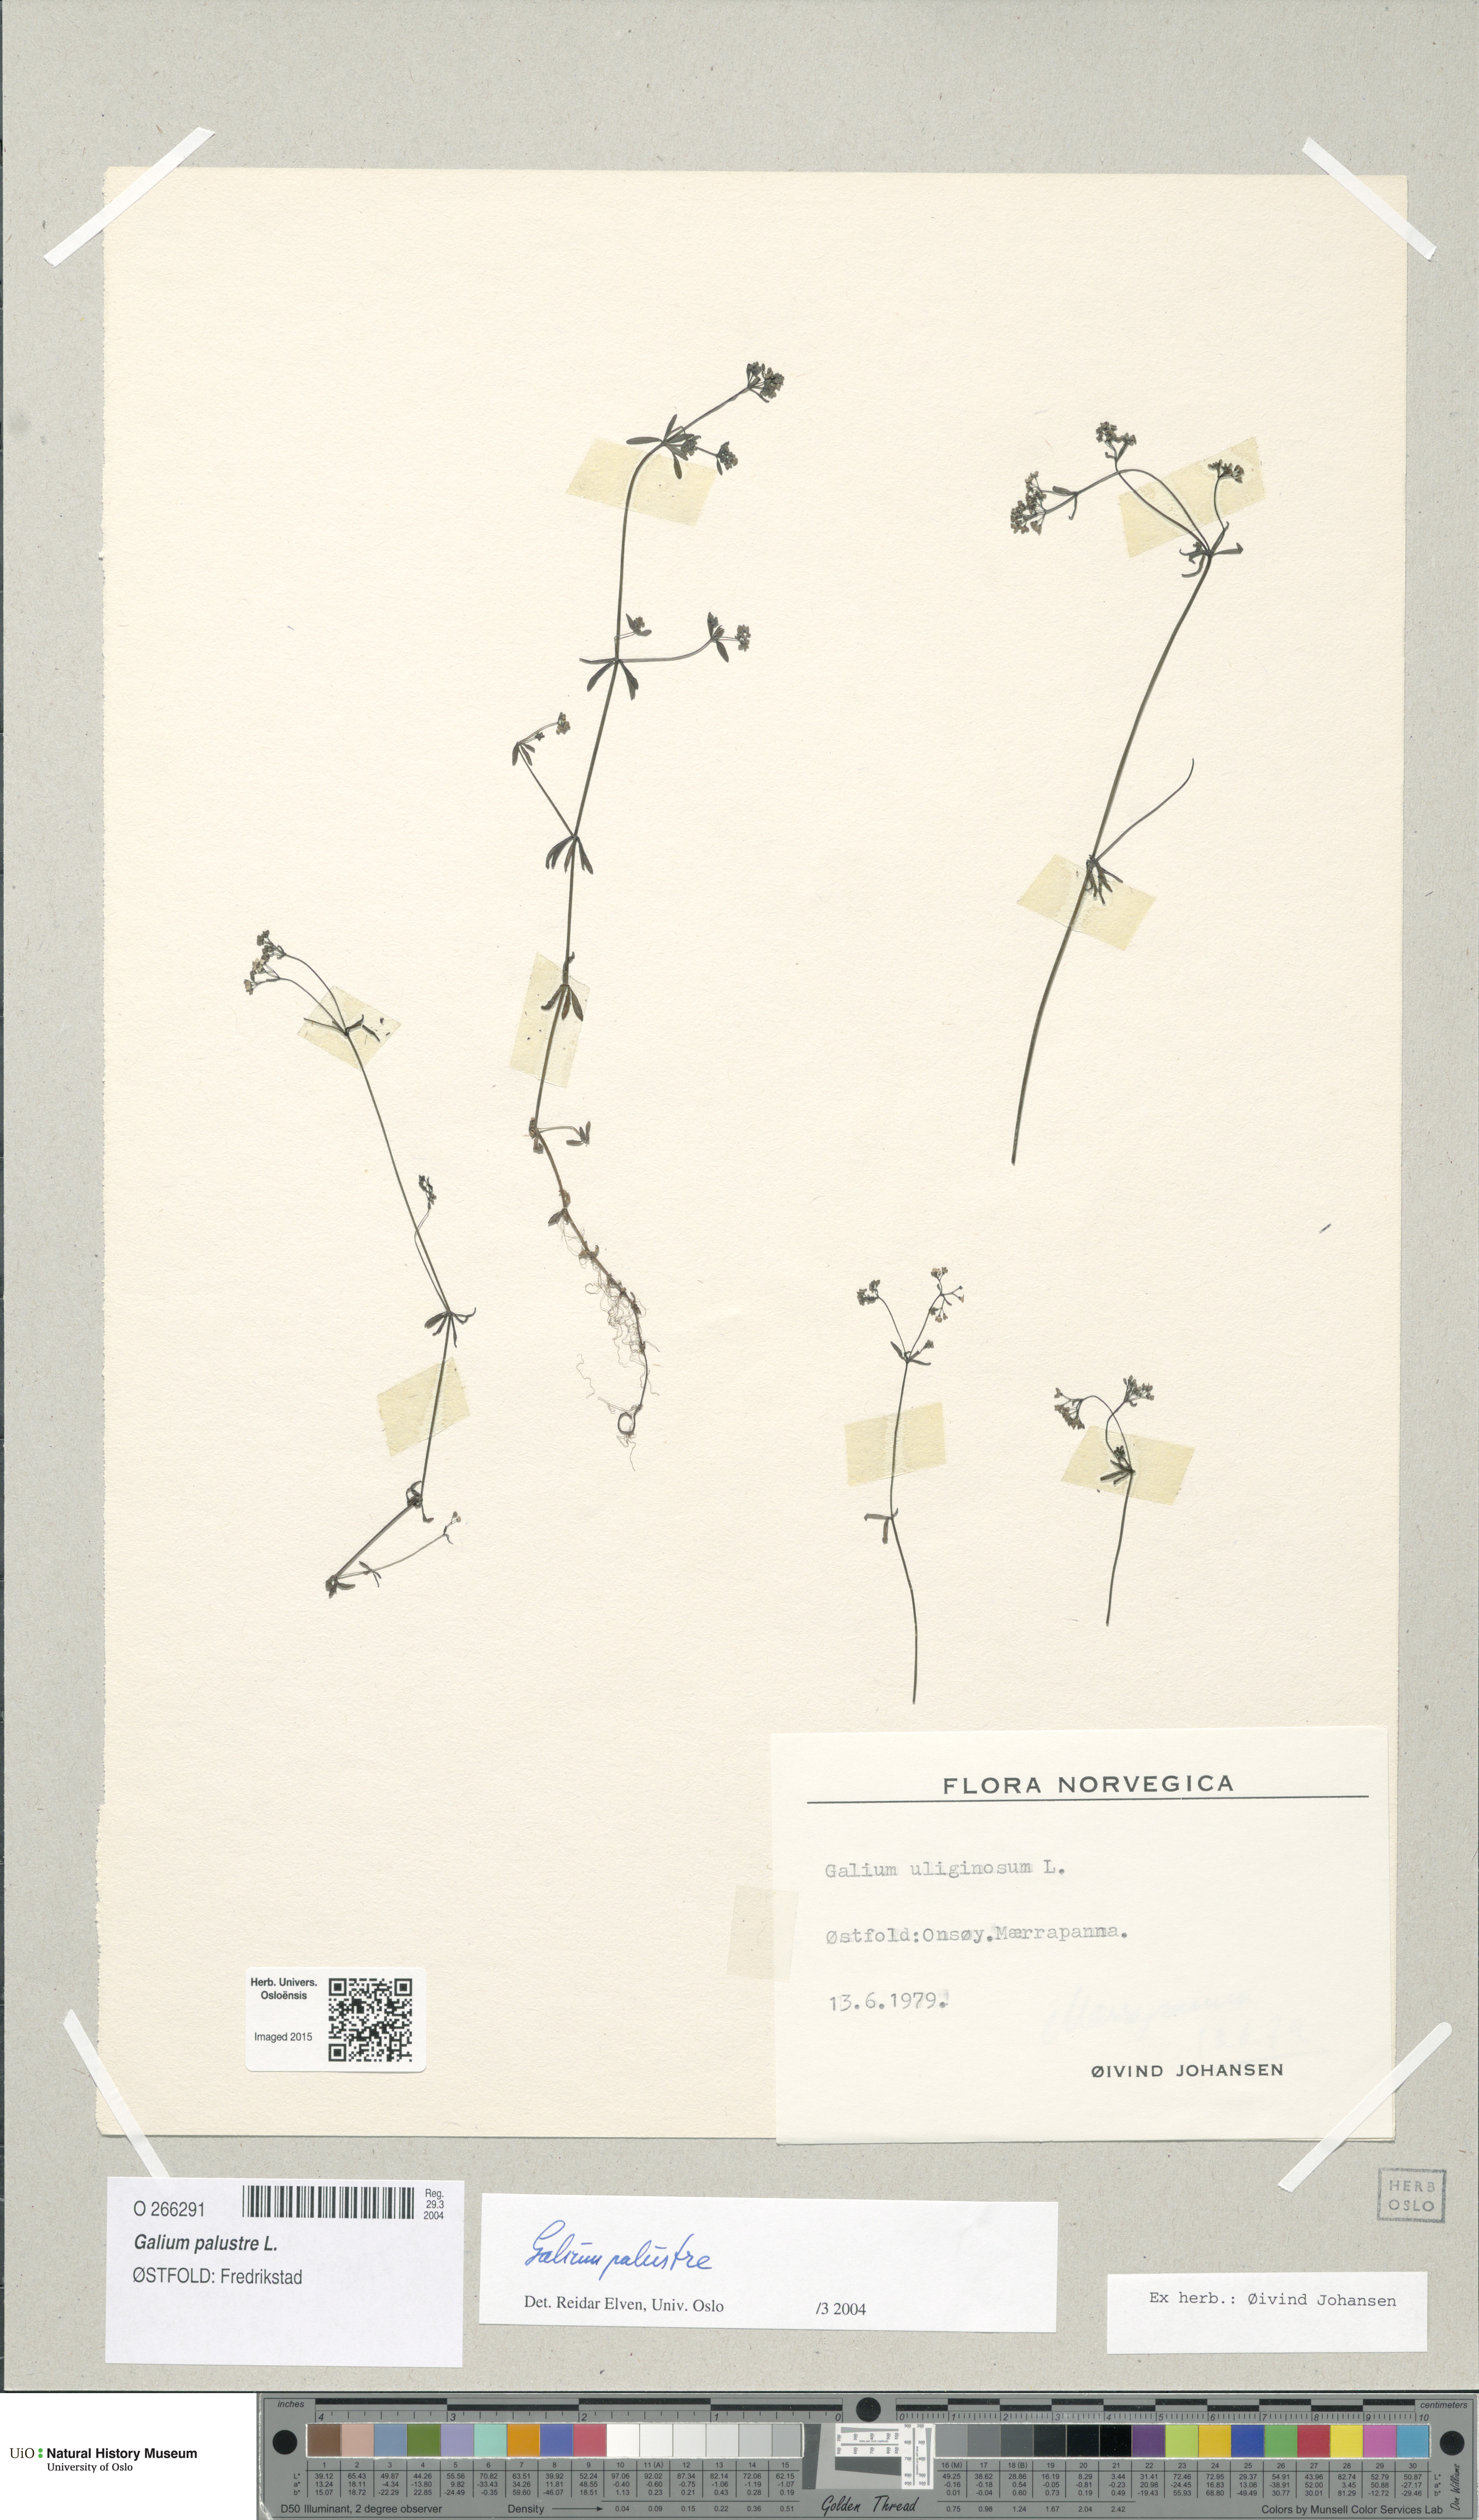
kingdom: Plantae
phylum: Tracheophyta
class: Magnoliopsida
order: Gentianales
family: Rubiaceae
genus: Galium
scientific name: Galium palustre
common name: Common marsh-bedstraw
